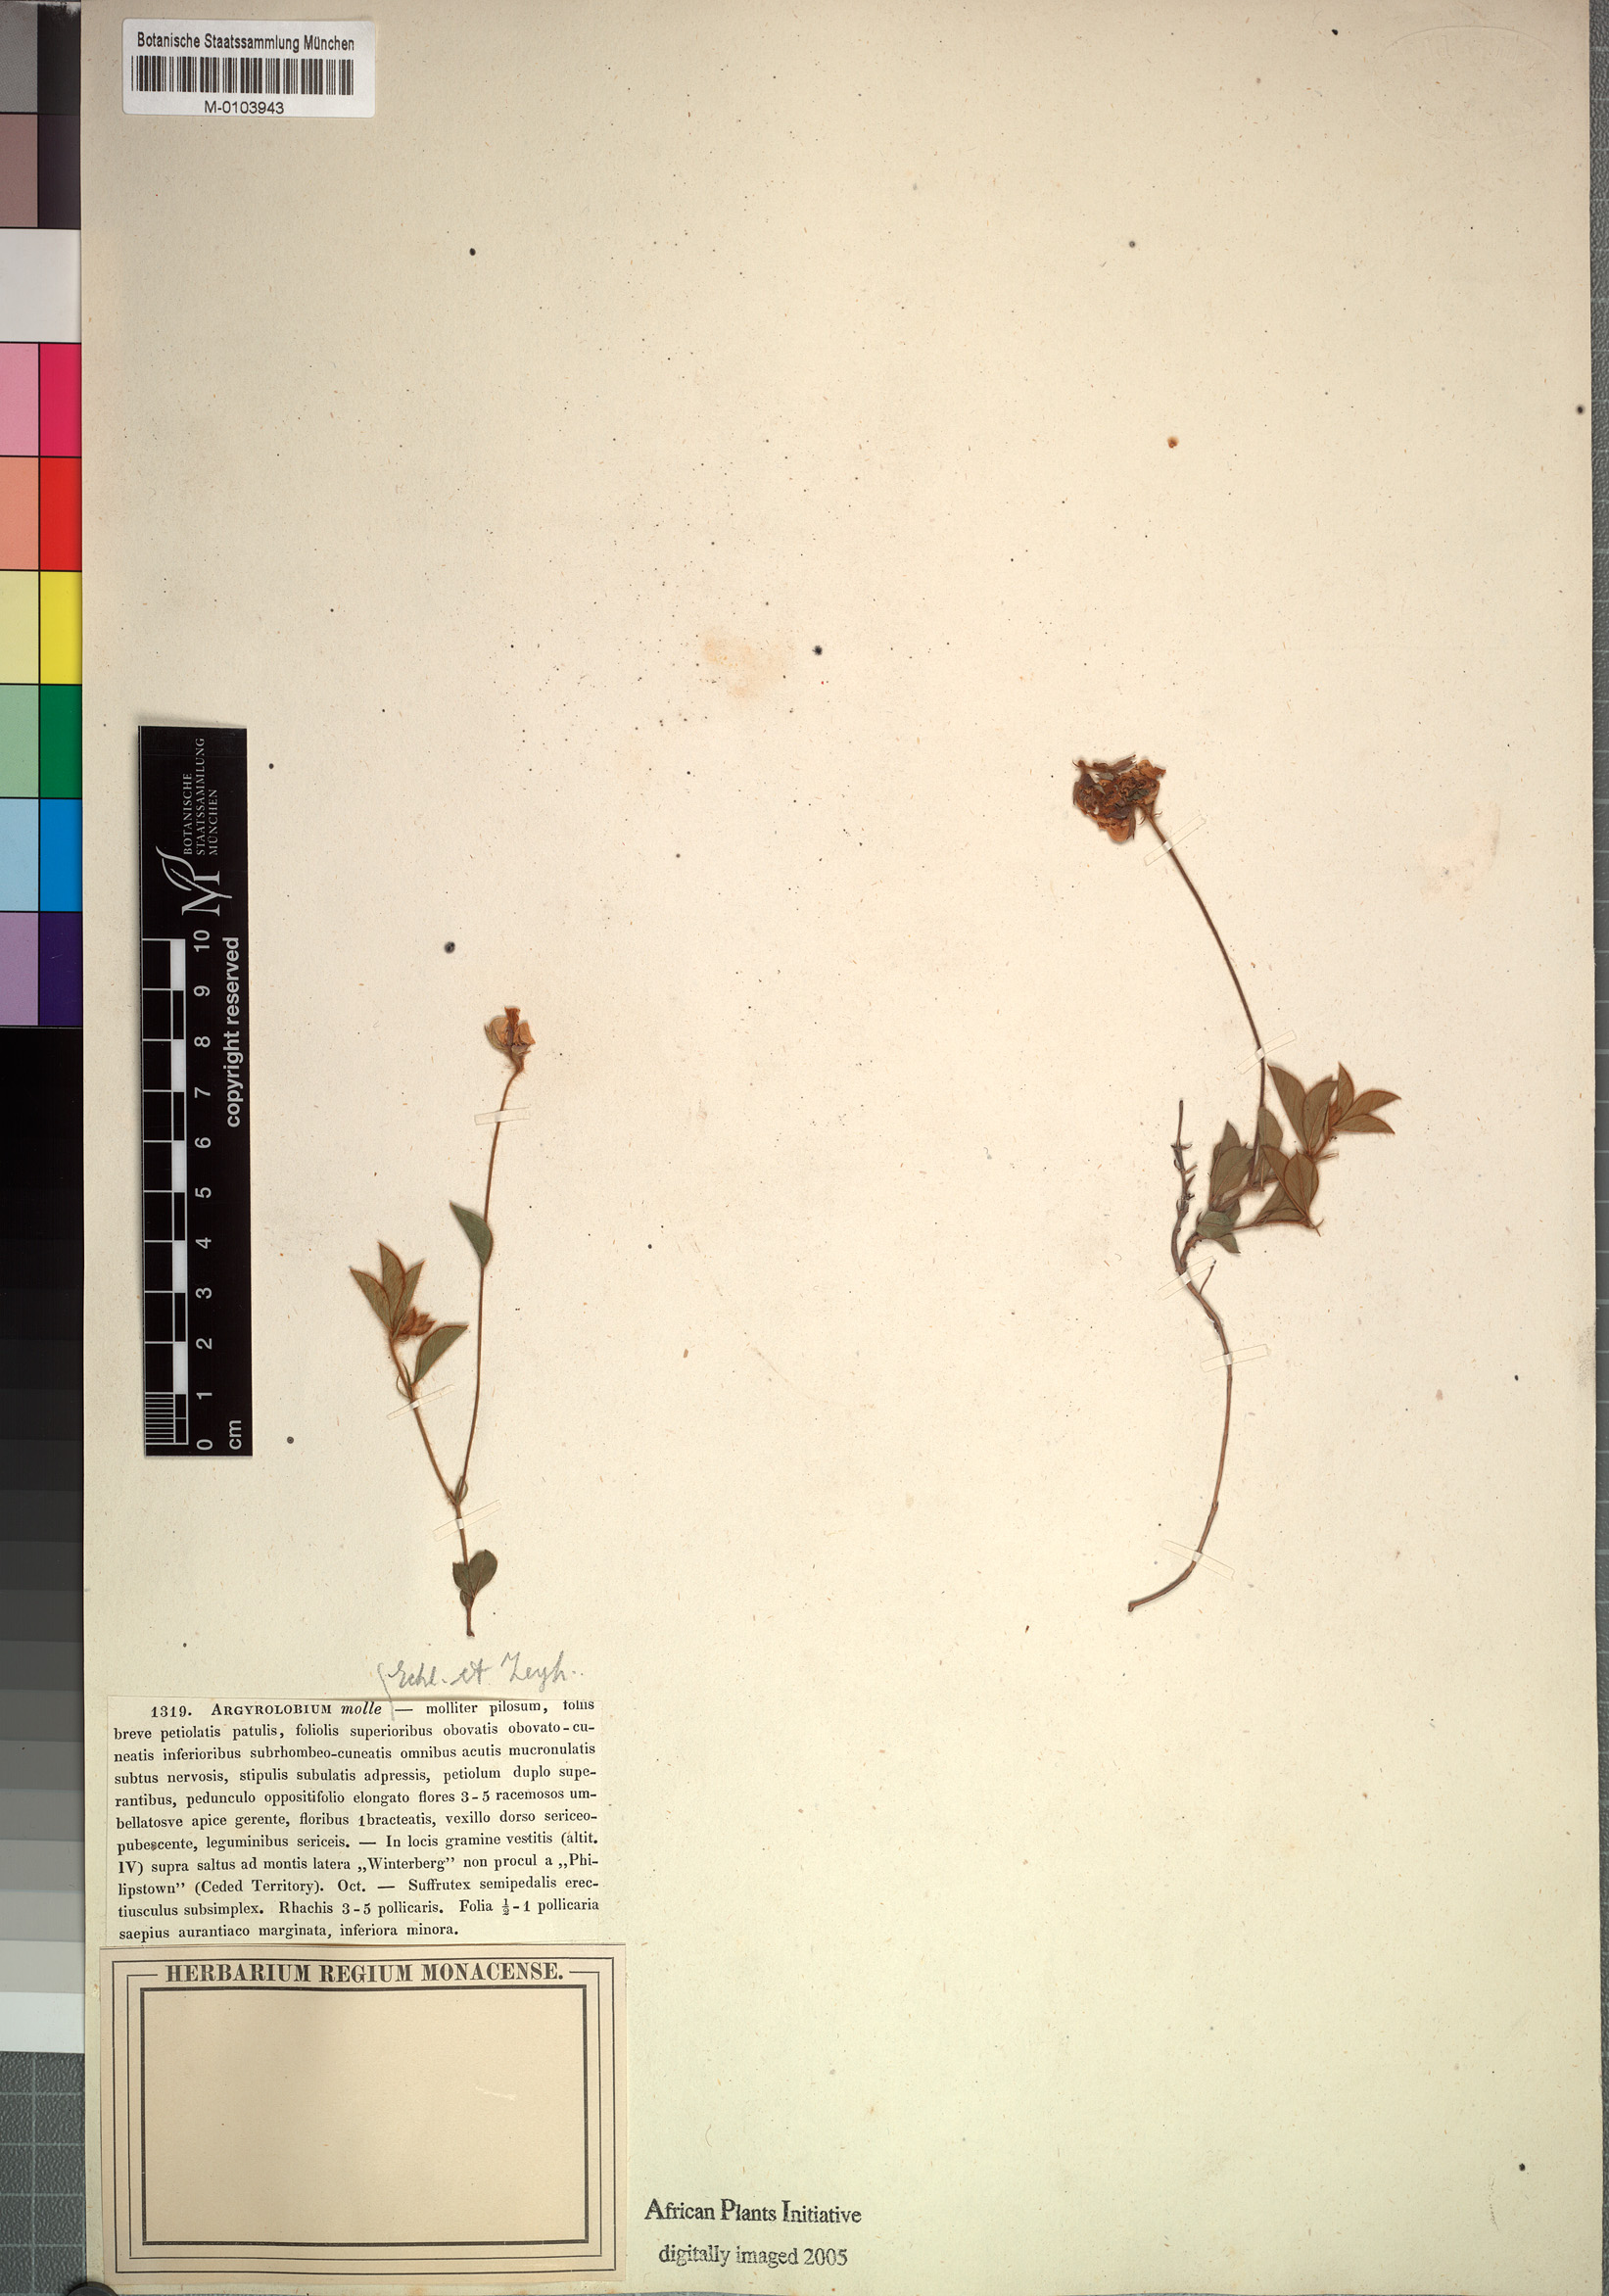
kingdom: Plantae
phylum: Tracheophyta
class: Magnoliopsida
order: Fabales
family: Fabaceae
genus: Argyrolobium
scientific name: Argyrolobium molle
